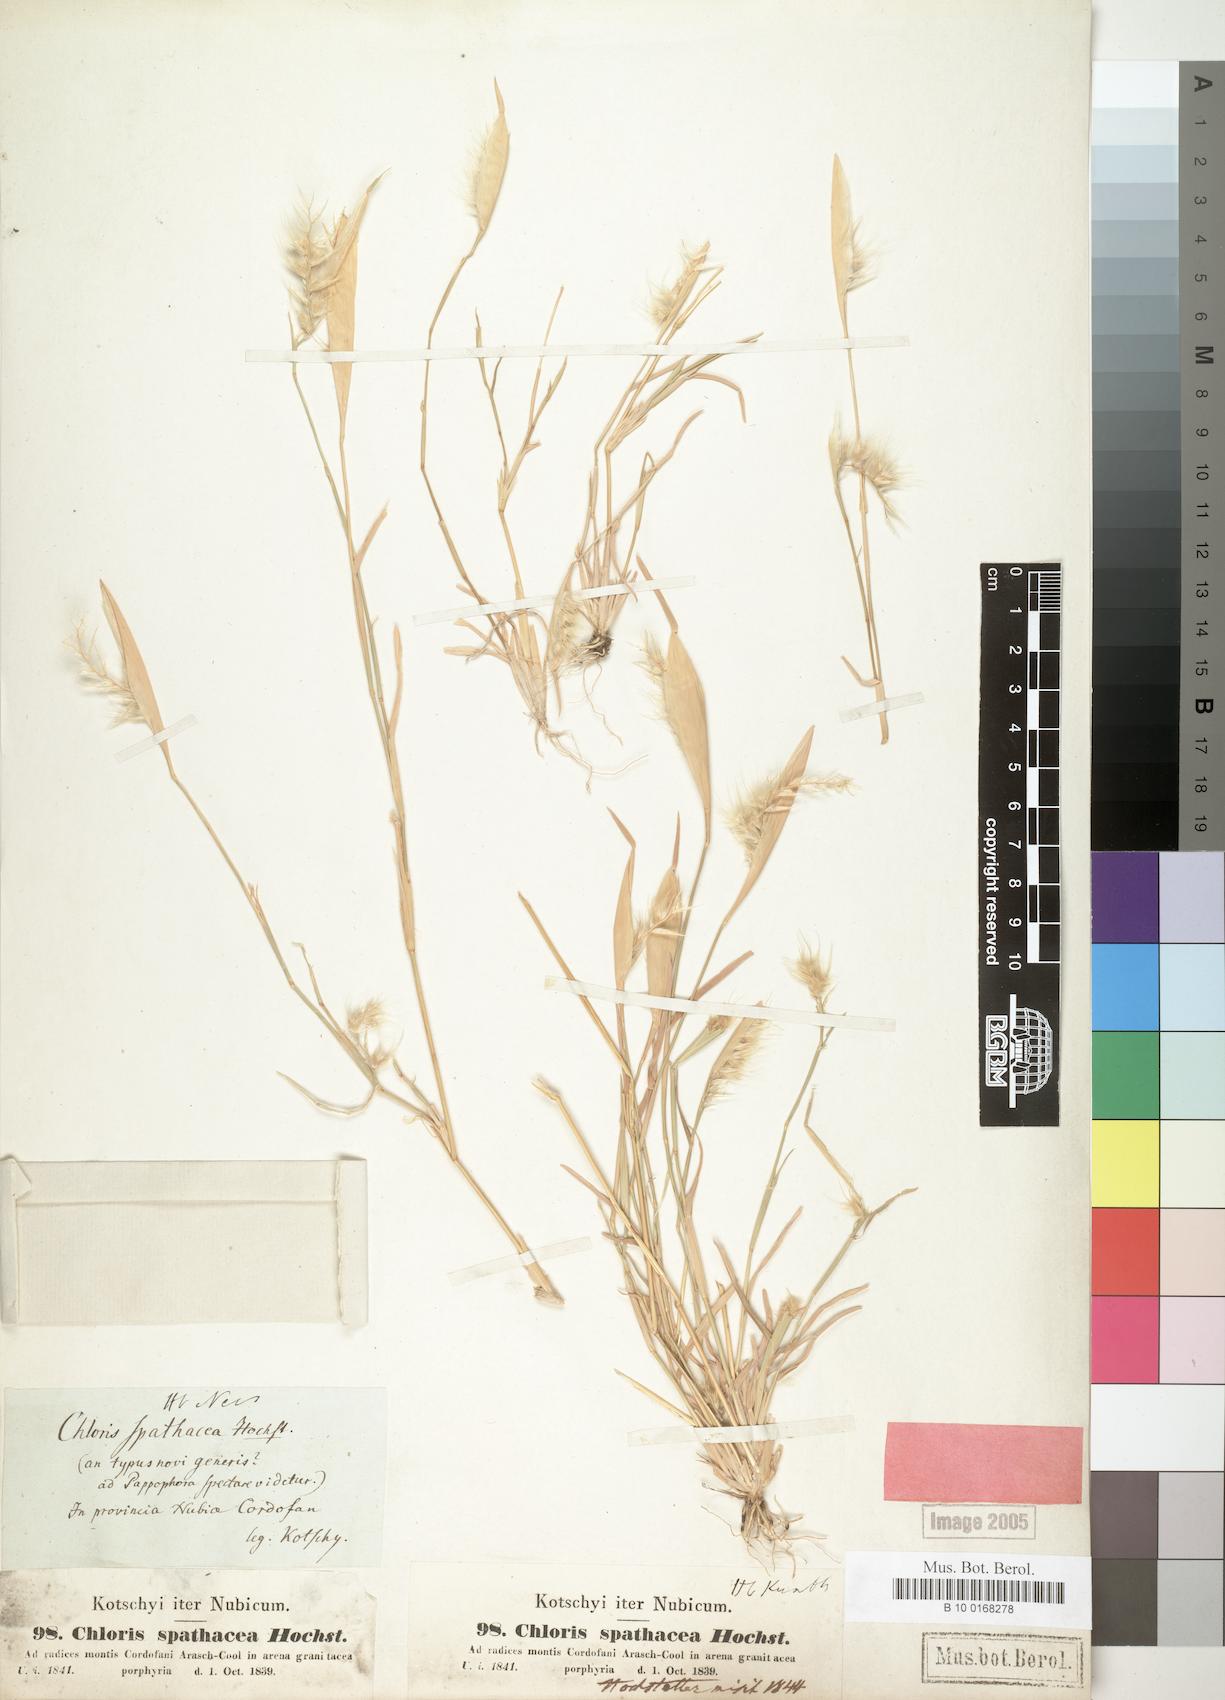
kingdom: Plantae
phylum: Tracheophyta
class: Liliopsida
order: Poales
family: Poaceae
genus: Tetrapogon
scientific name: Tetrapogon cenchriformis
